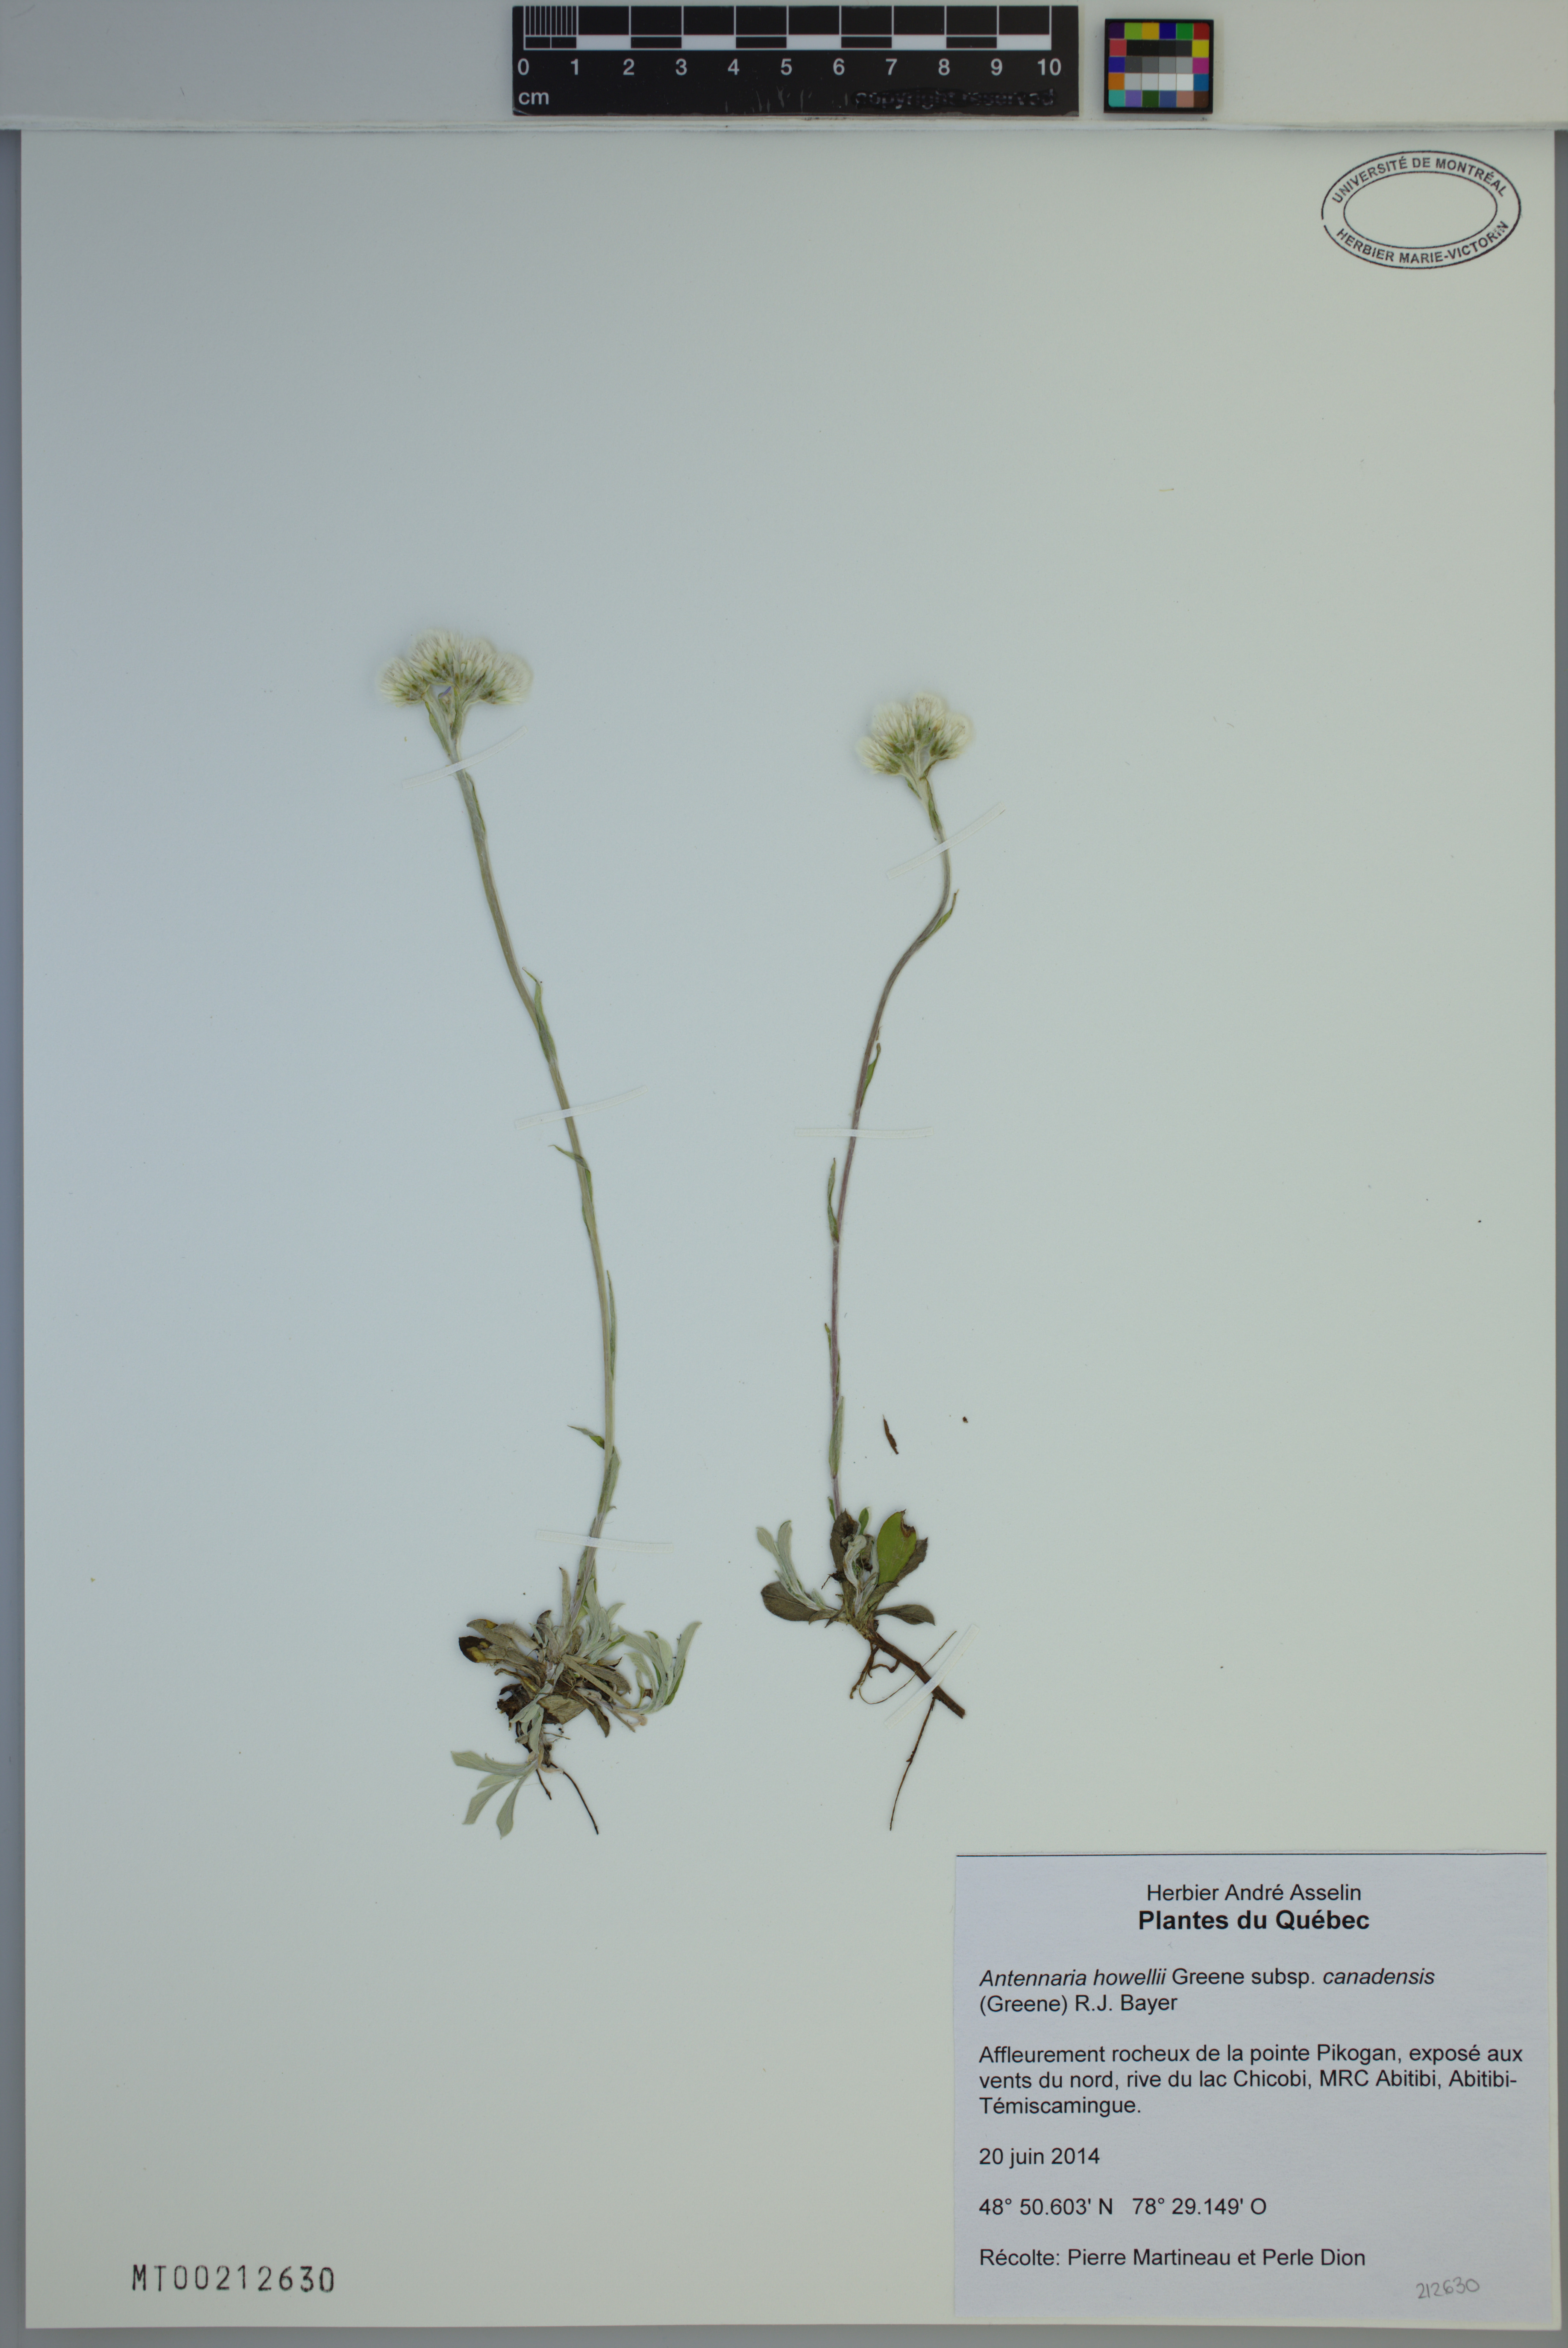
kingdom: Plantae
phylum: Tracheophyta
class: Magnoliopsida
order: Asterales
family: Asteraceae
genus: Antennaria
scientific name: Antennaria howellii
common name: Howell's pussytoes
